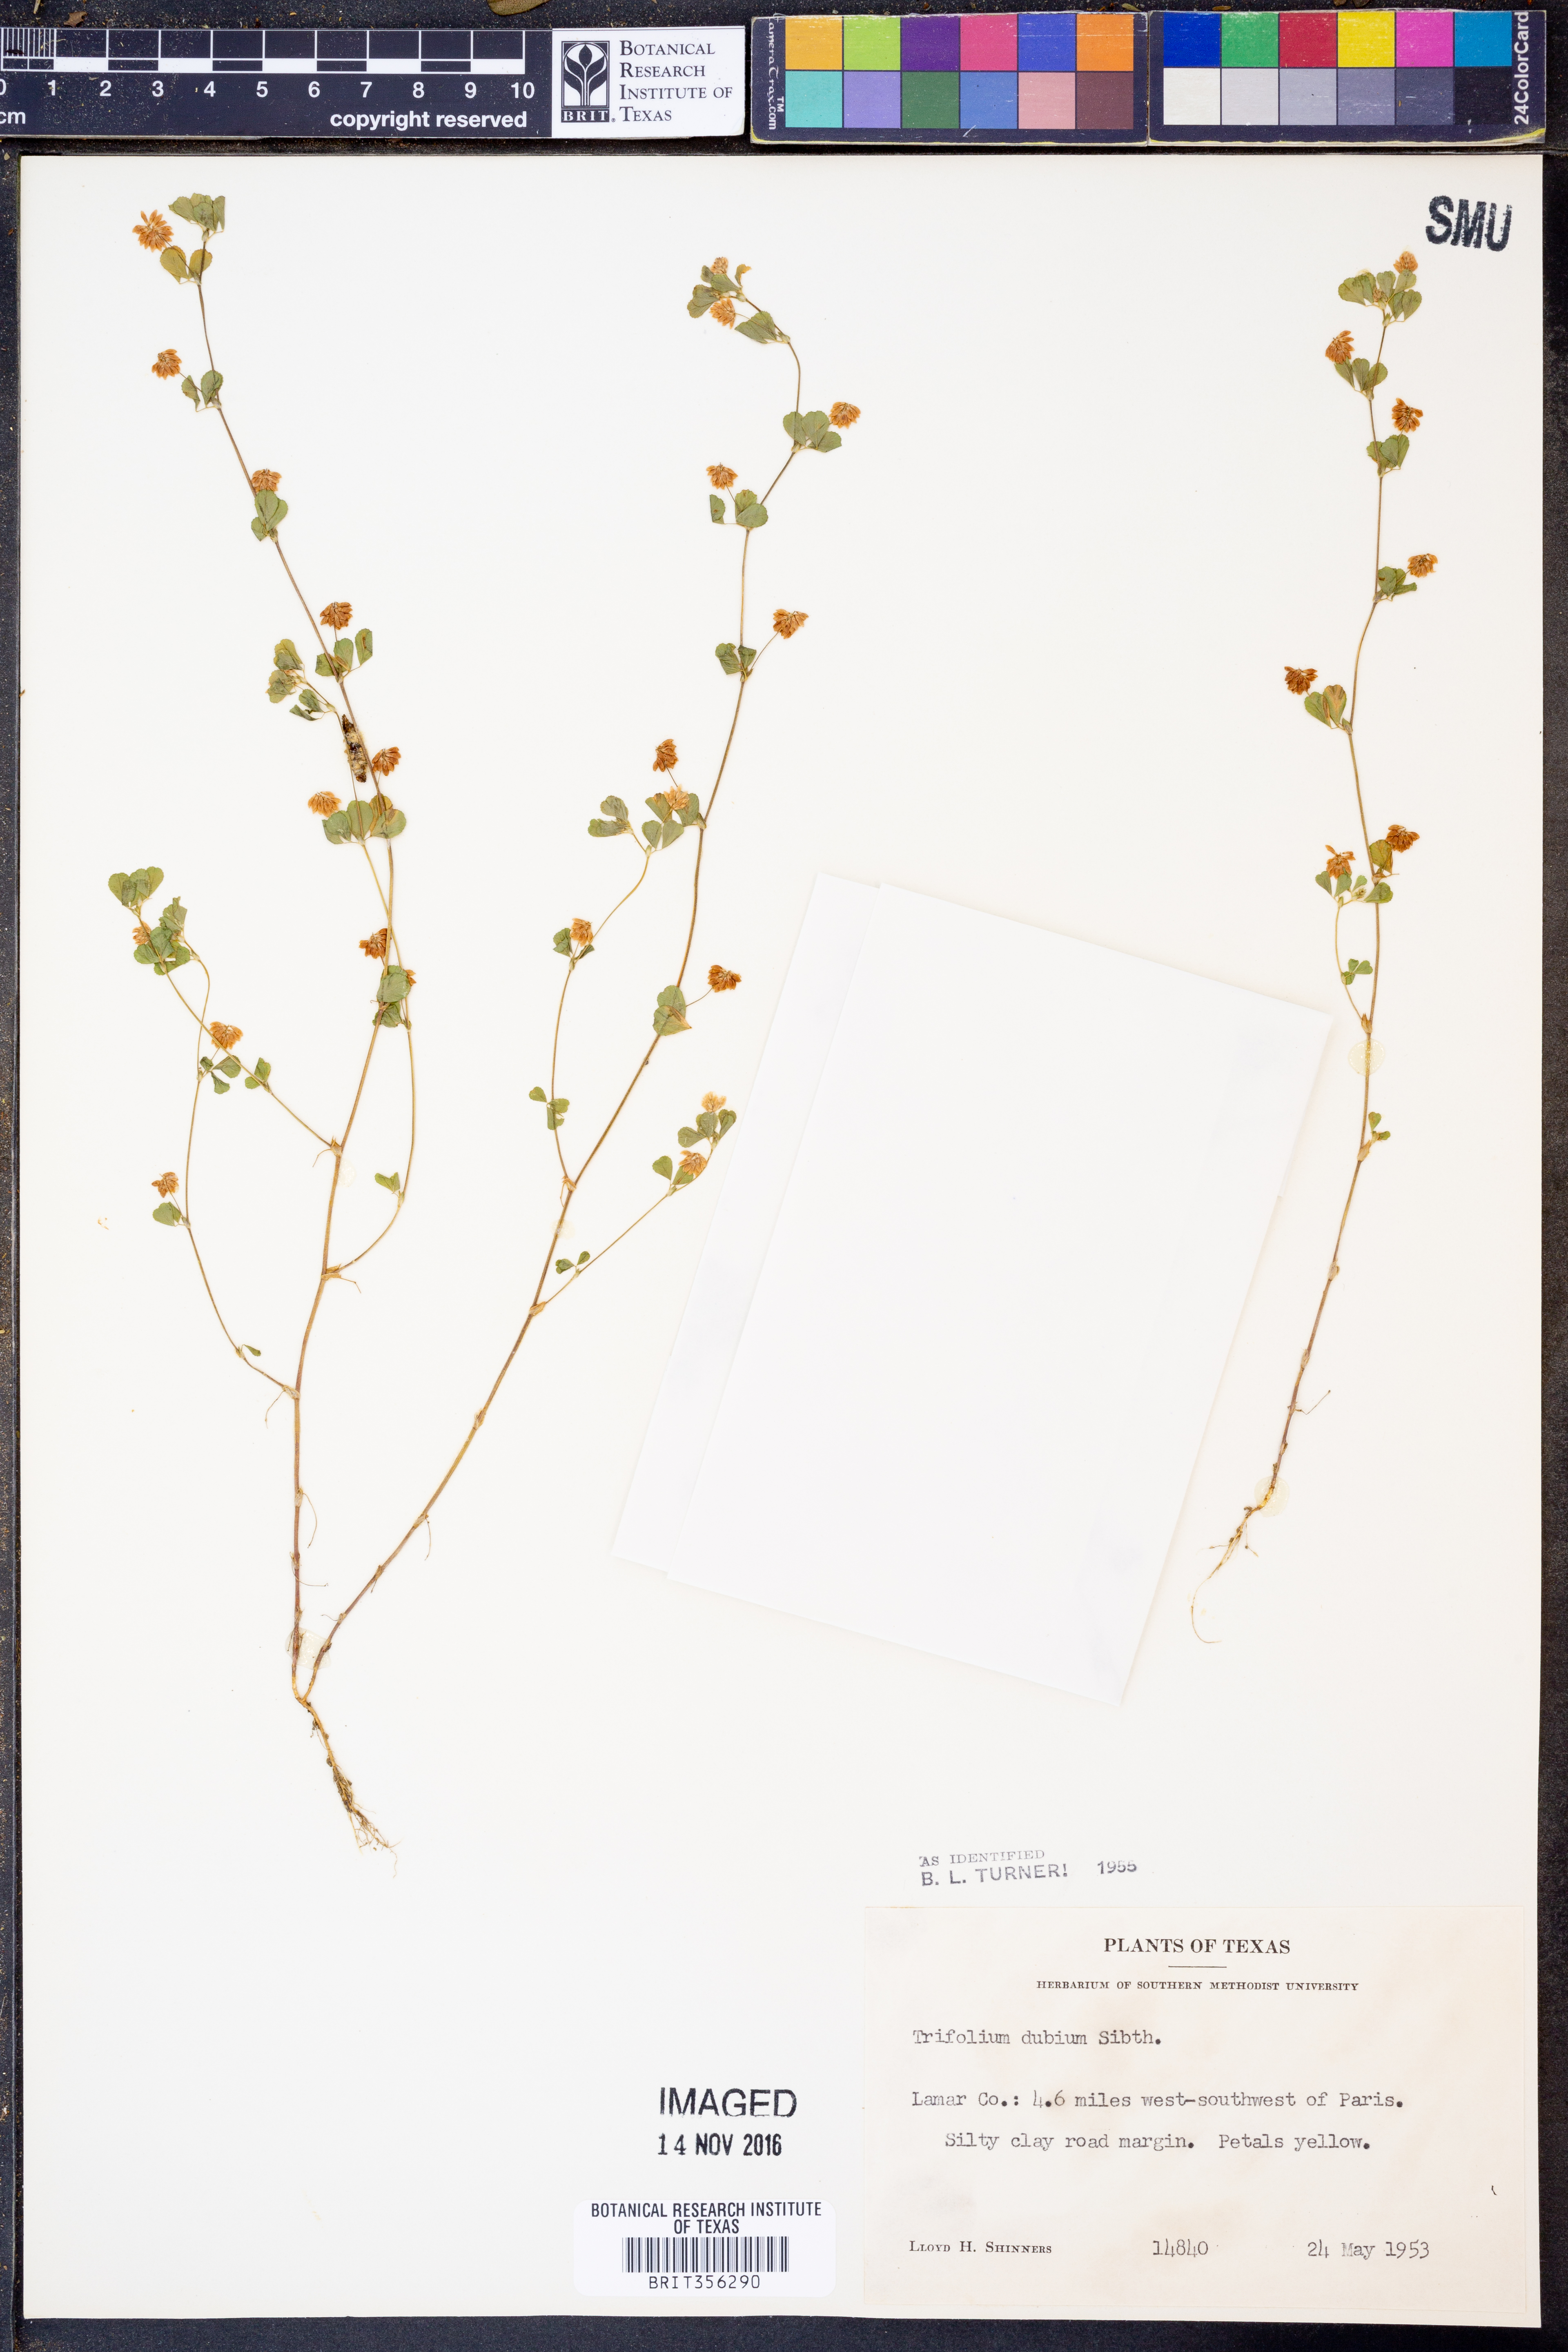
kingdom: Plantae
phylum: Tracheophyta
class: Magnoliopsida
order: Fabales
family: Fabaceae
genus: Trifolium
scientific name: Trifolium dubium
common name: Suckling clover
